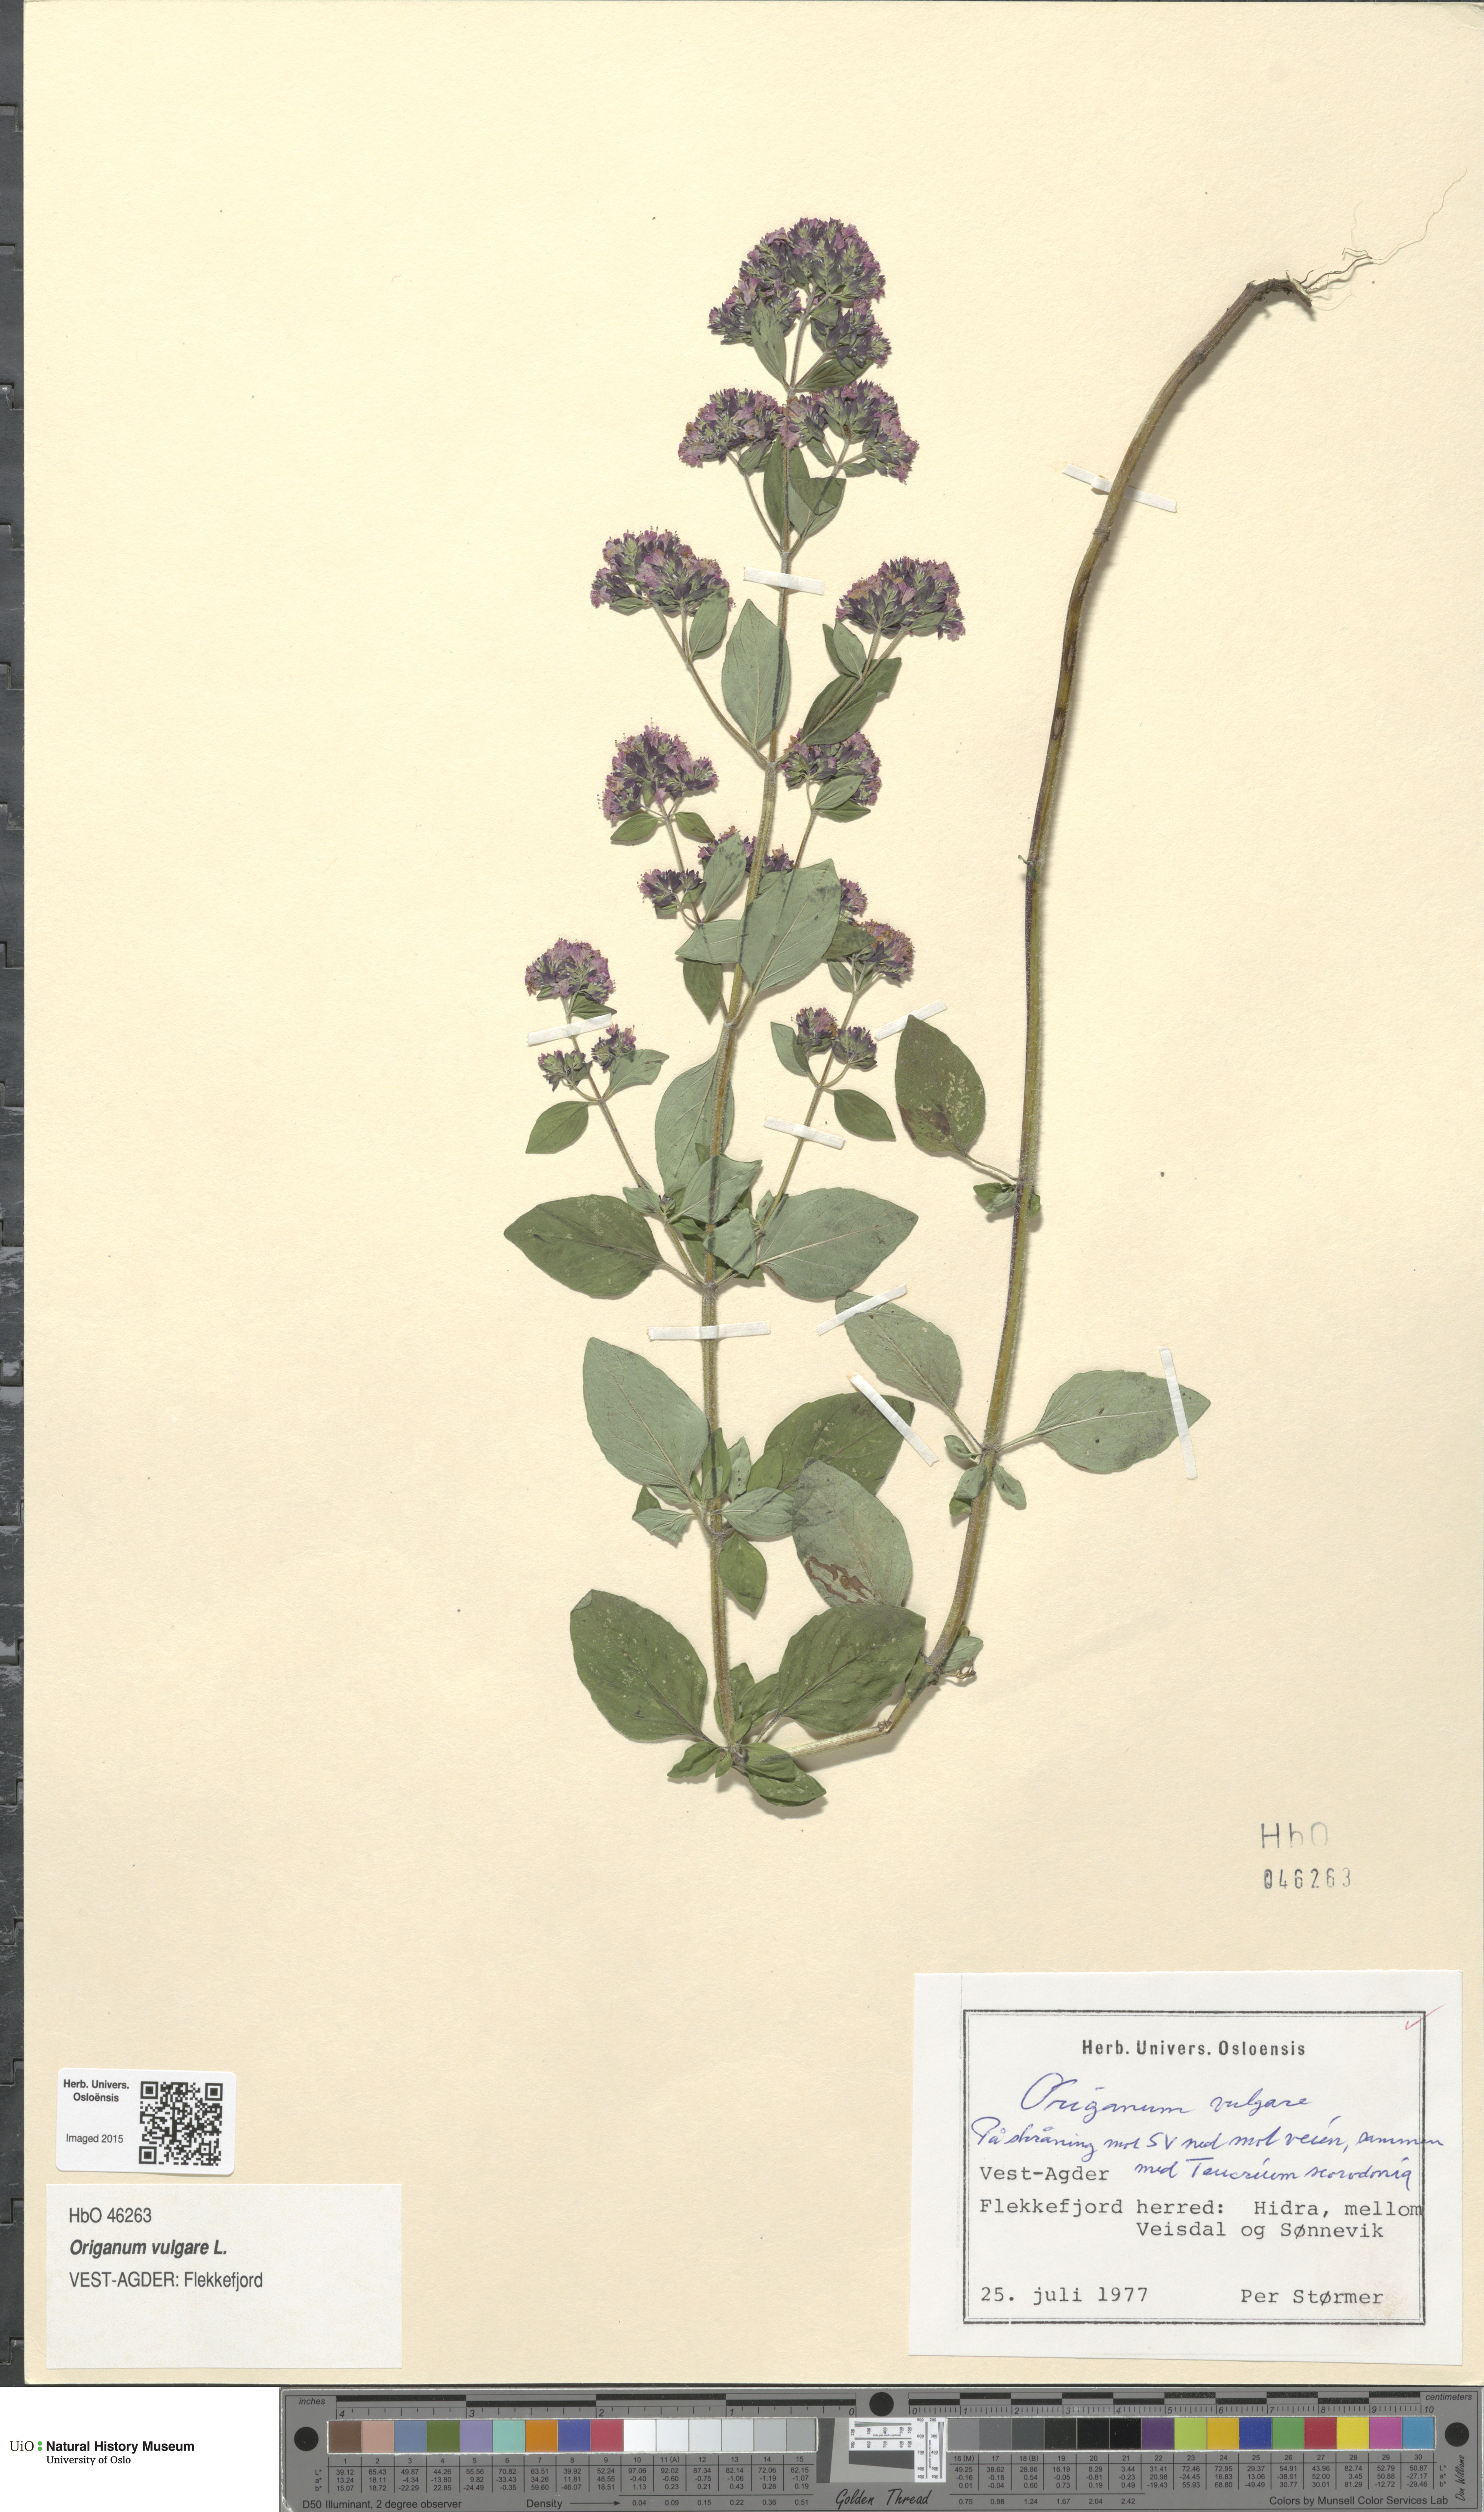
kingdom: Plantae
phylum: Tracheophyta
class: Magnoliopsida
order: Lamiales
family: Lamiaceae
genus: Origanum
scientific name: Origanum vulgare
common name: Wild marjoram
